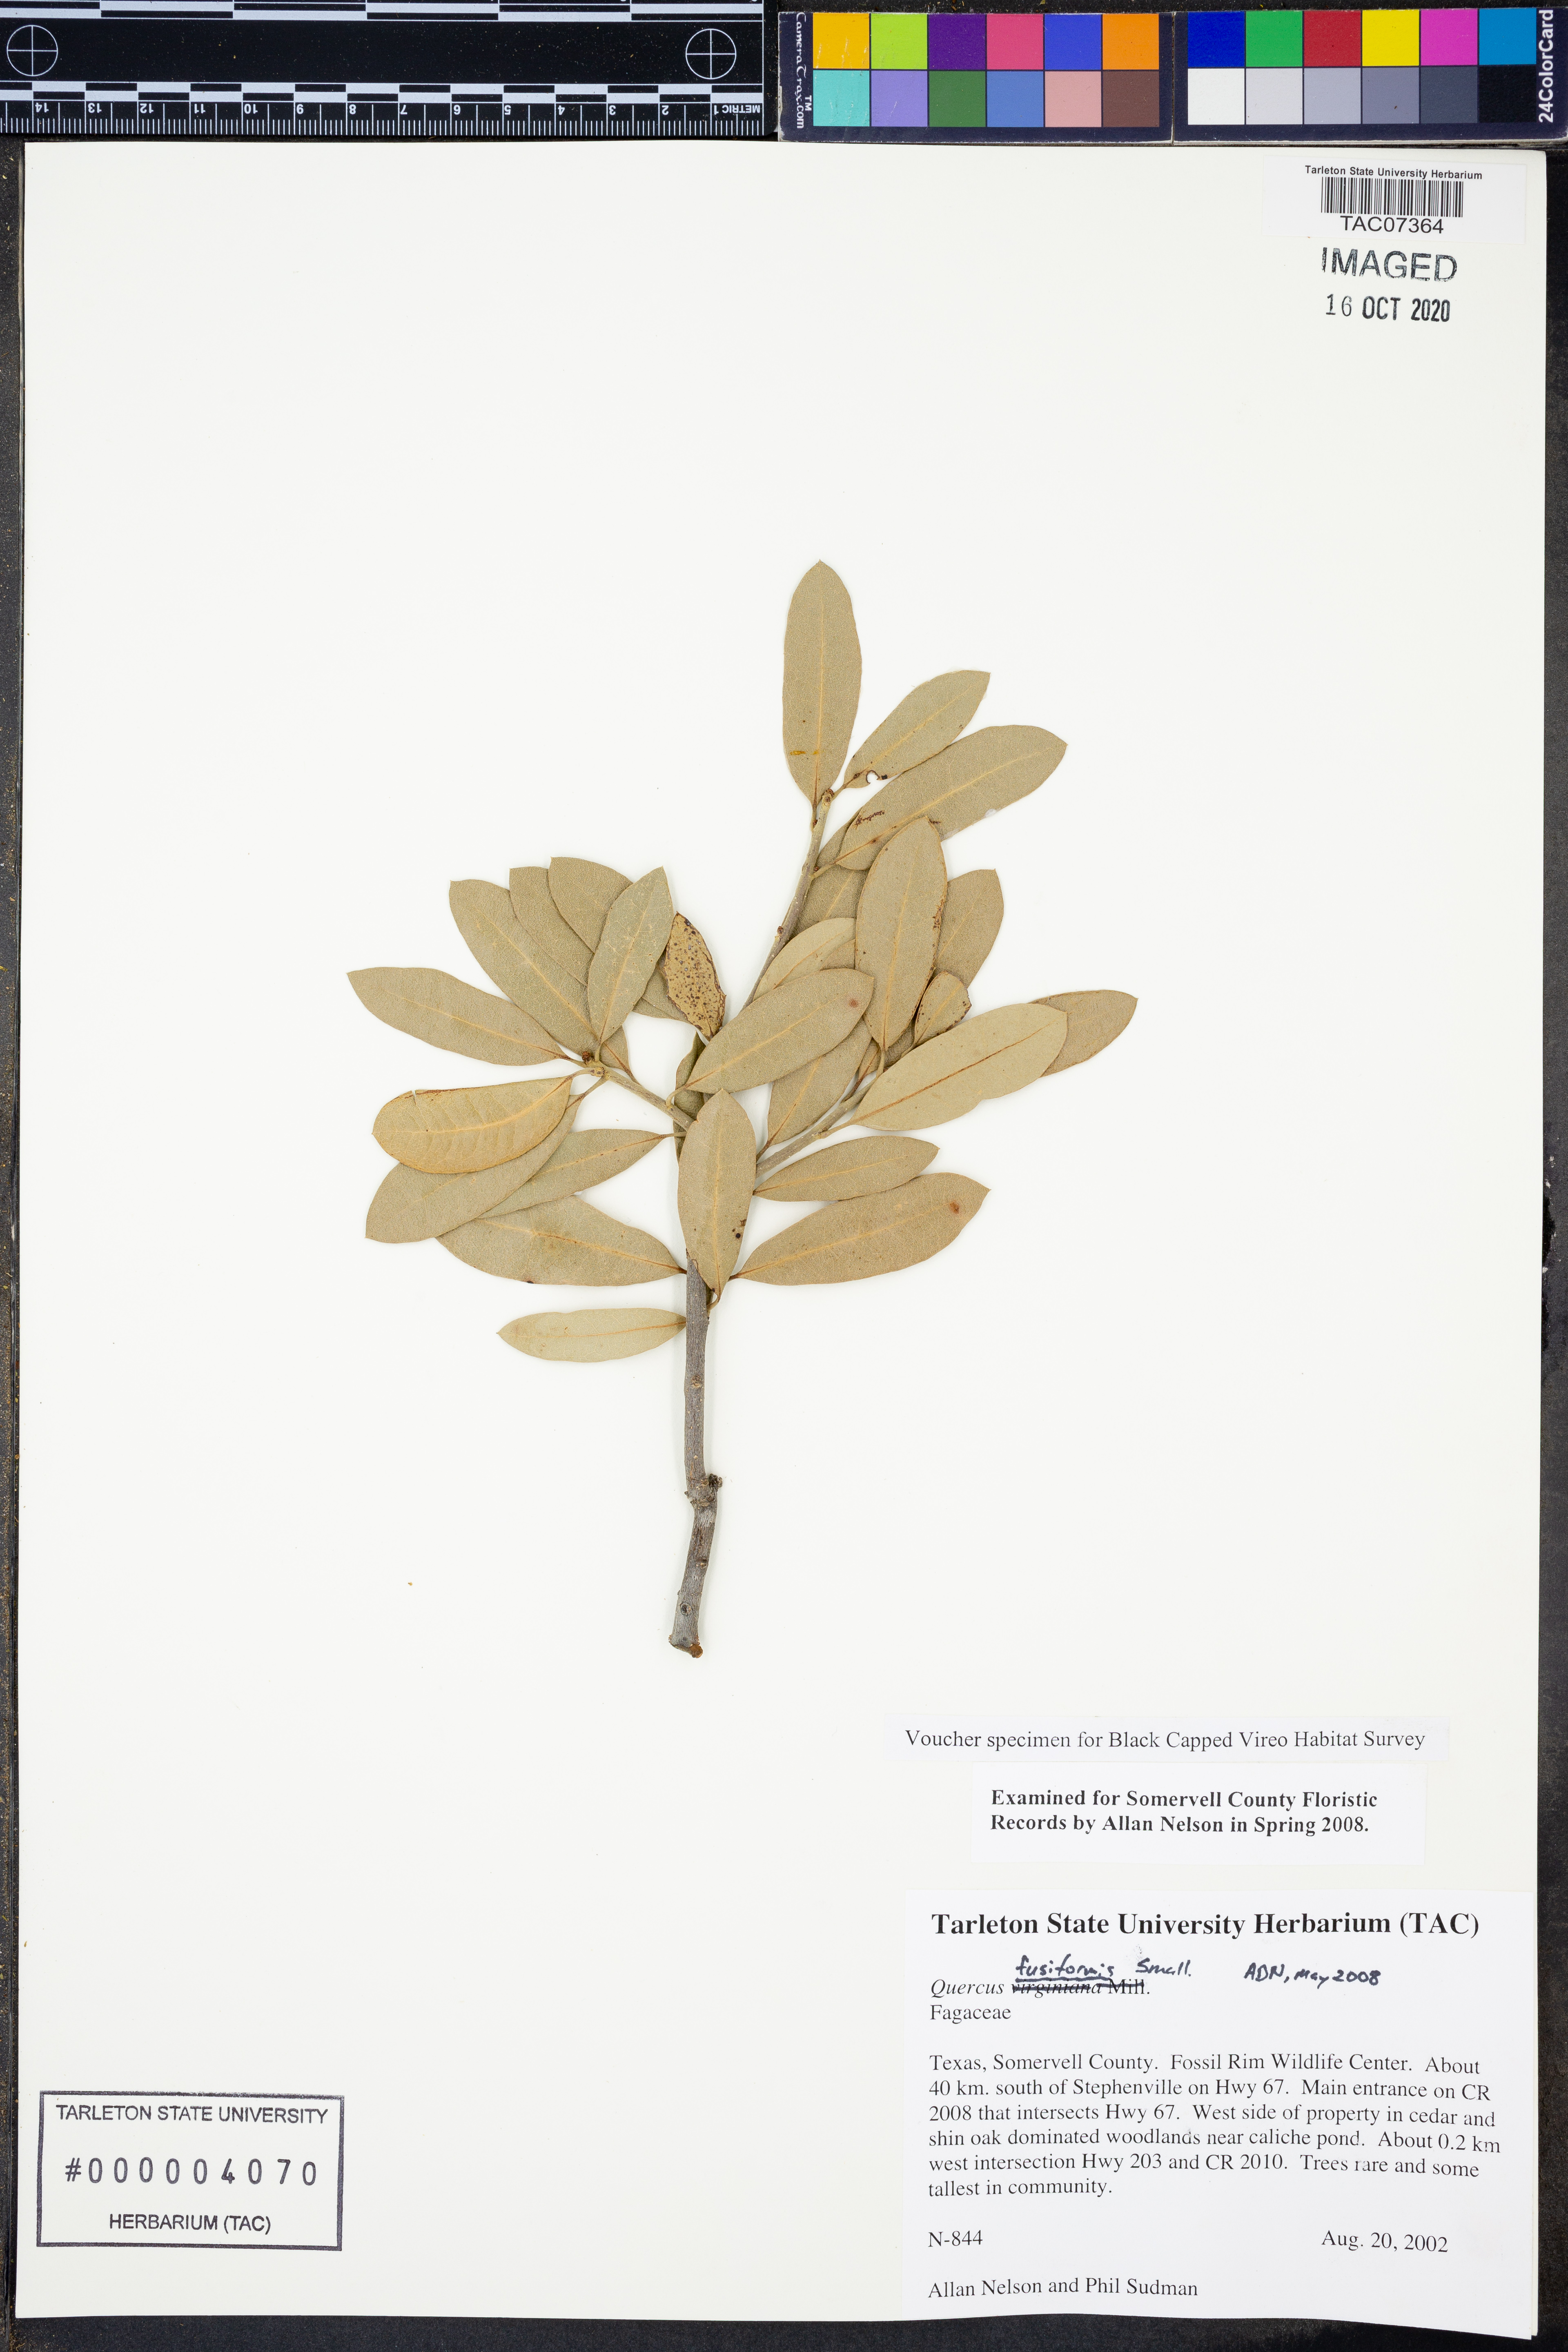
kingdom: Plantae
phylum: Tracheophyta
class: Magnoliopsida
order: Fagales
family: Fagaceae
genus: Quercus
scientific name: Quercus fusiformis
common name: Texas live oak
